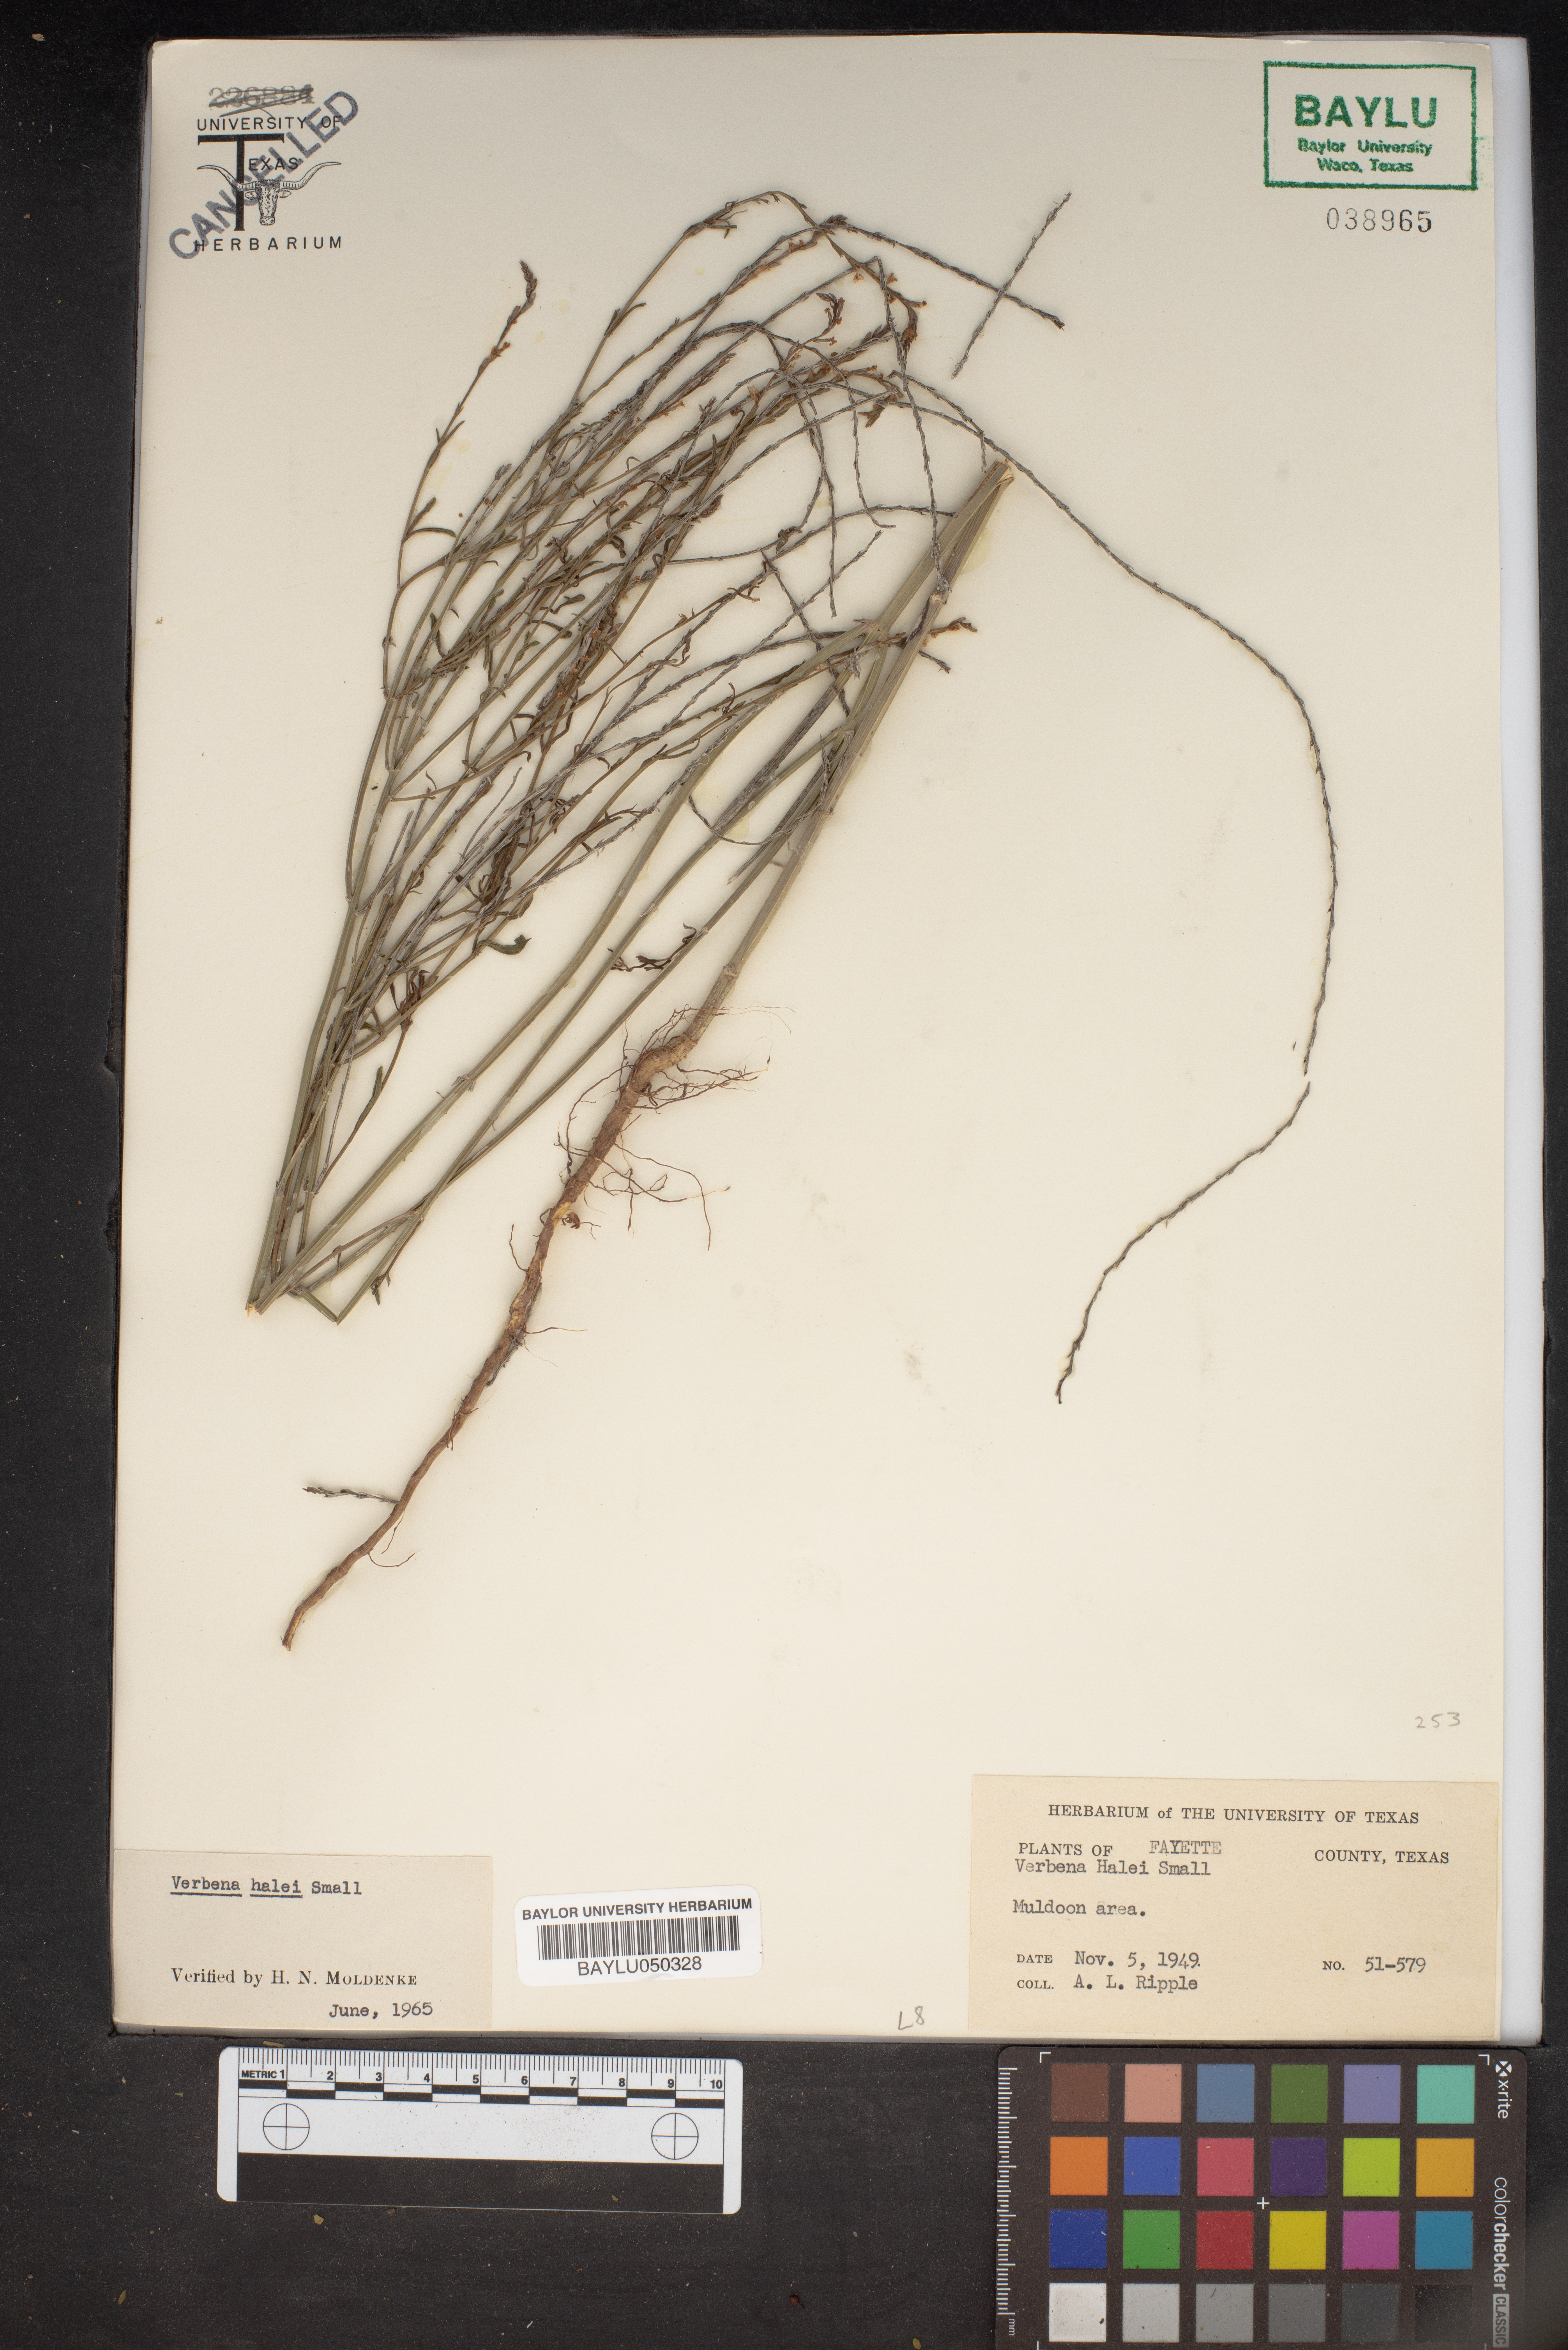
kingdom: Plantae
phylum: Tracheophyta
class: Magnoliopsida
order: Lamiales
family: Verbenaceae
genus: Verbena
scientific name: Verbena halei
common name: Texas vervain
